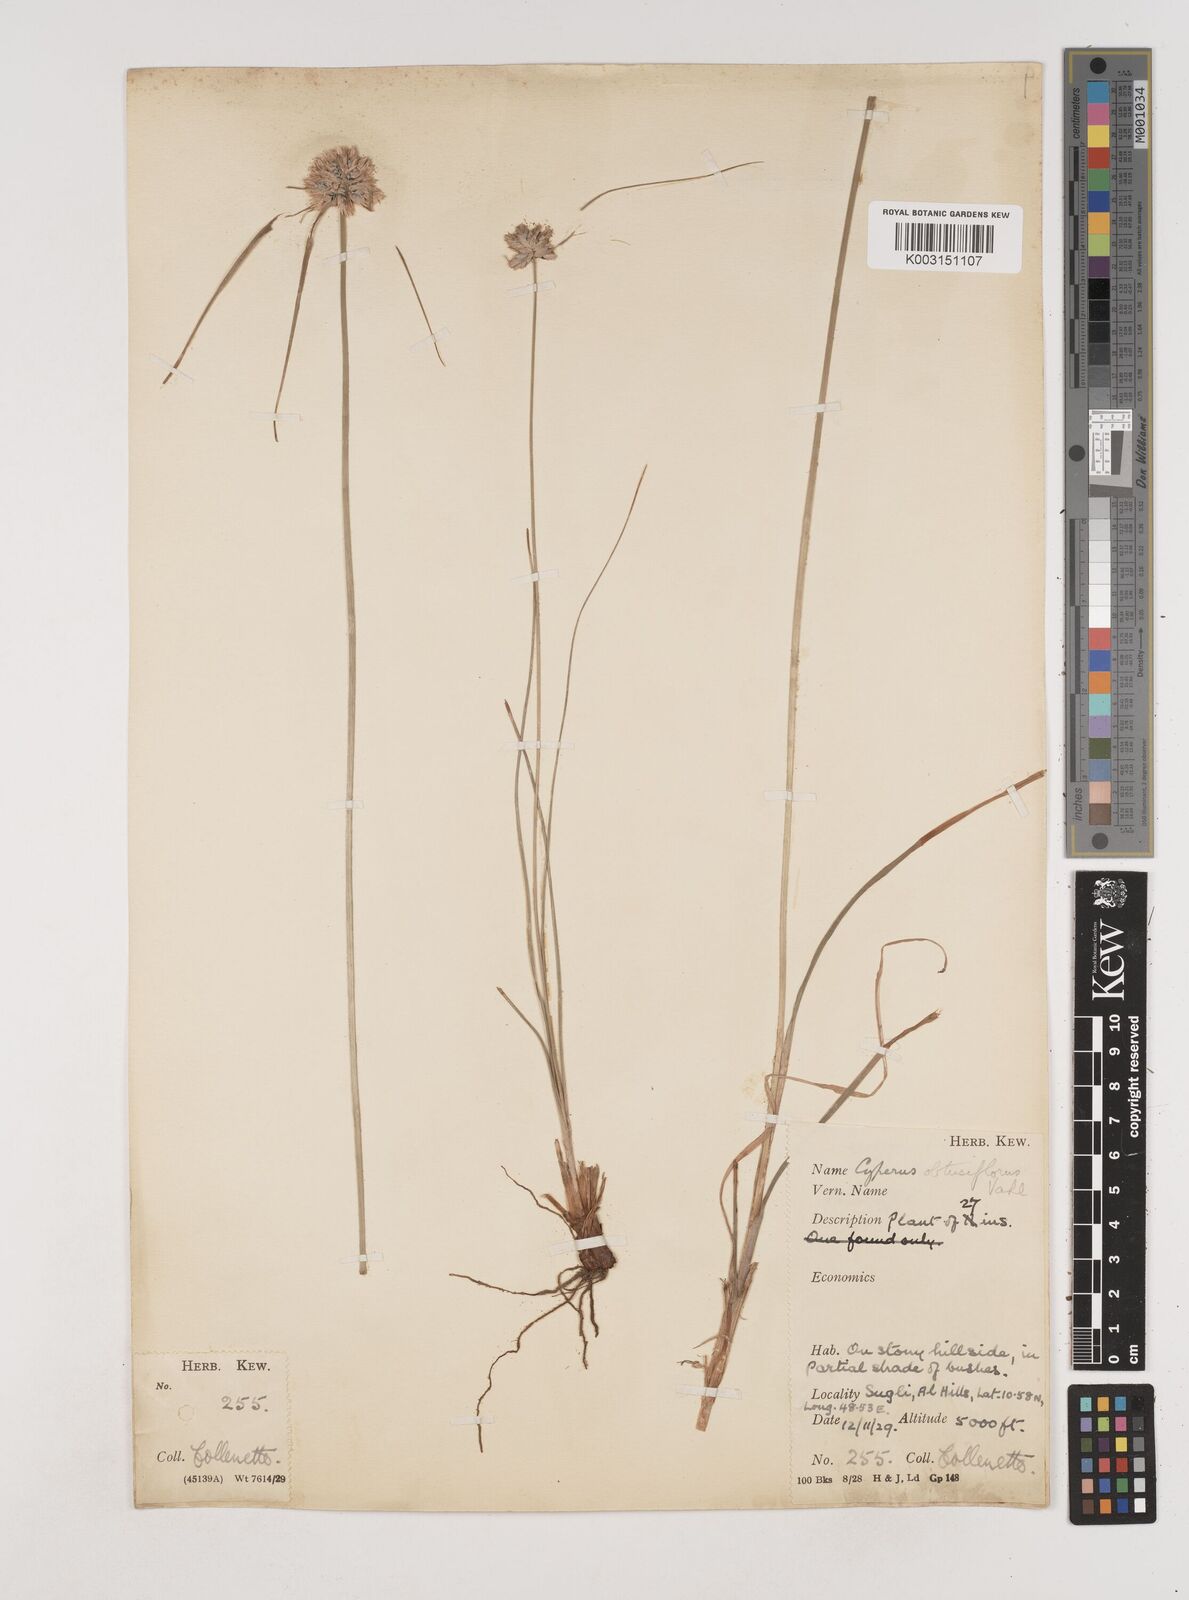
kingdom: Plantae
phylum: Tracheophyta
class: Liliopsida
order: Poales
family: Cyperaceae
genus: Cyperus
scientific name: Cyperus niveus
